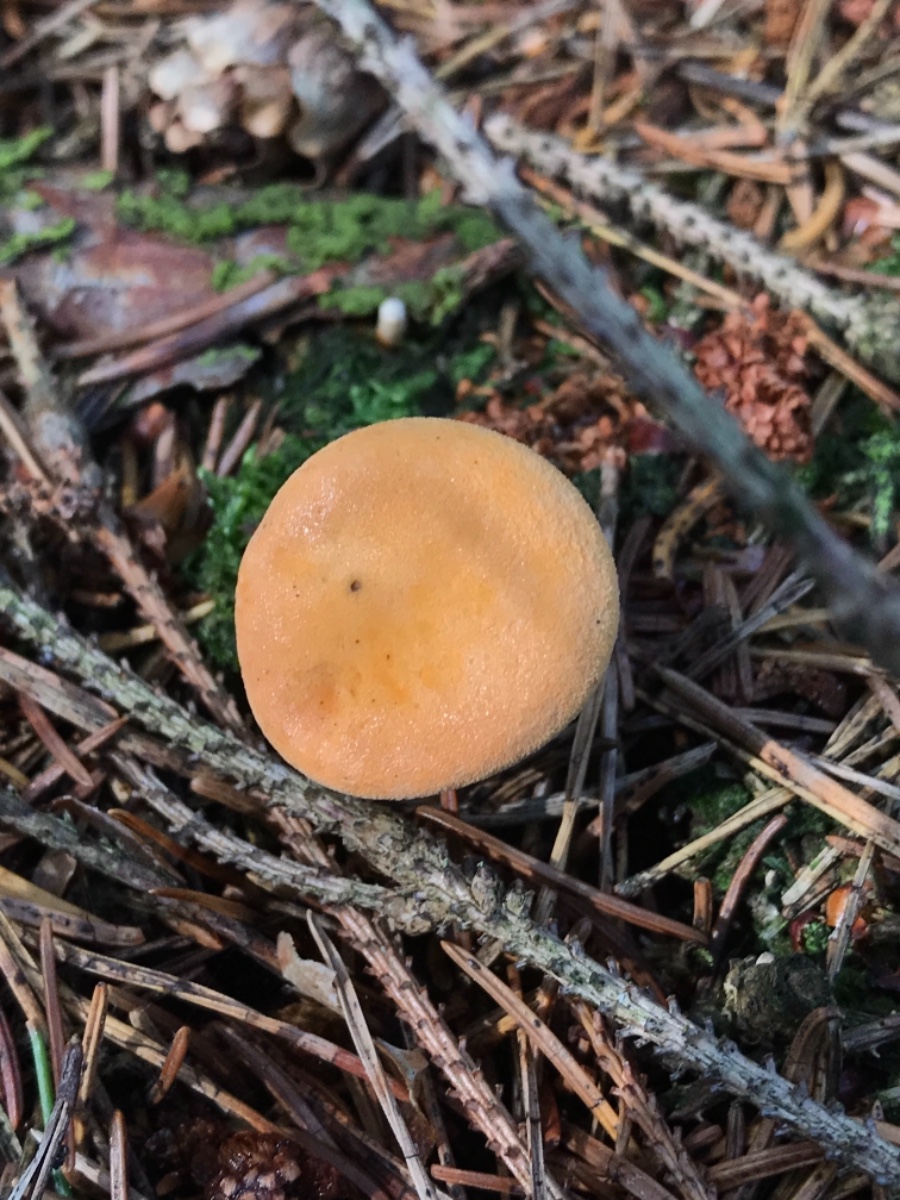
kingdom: Fungi
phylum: Basidiomycota
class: Agaricomycetes
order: Boletales
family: Hygrophoropsidaceae
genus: Hygrophoropsis
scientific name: Hygrophoropsis aurantiaca
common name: almindelig orangekantarel
